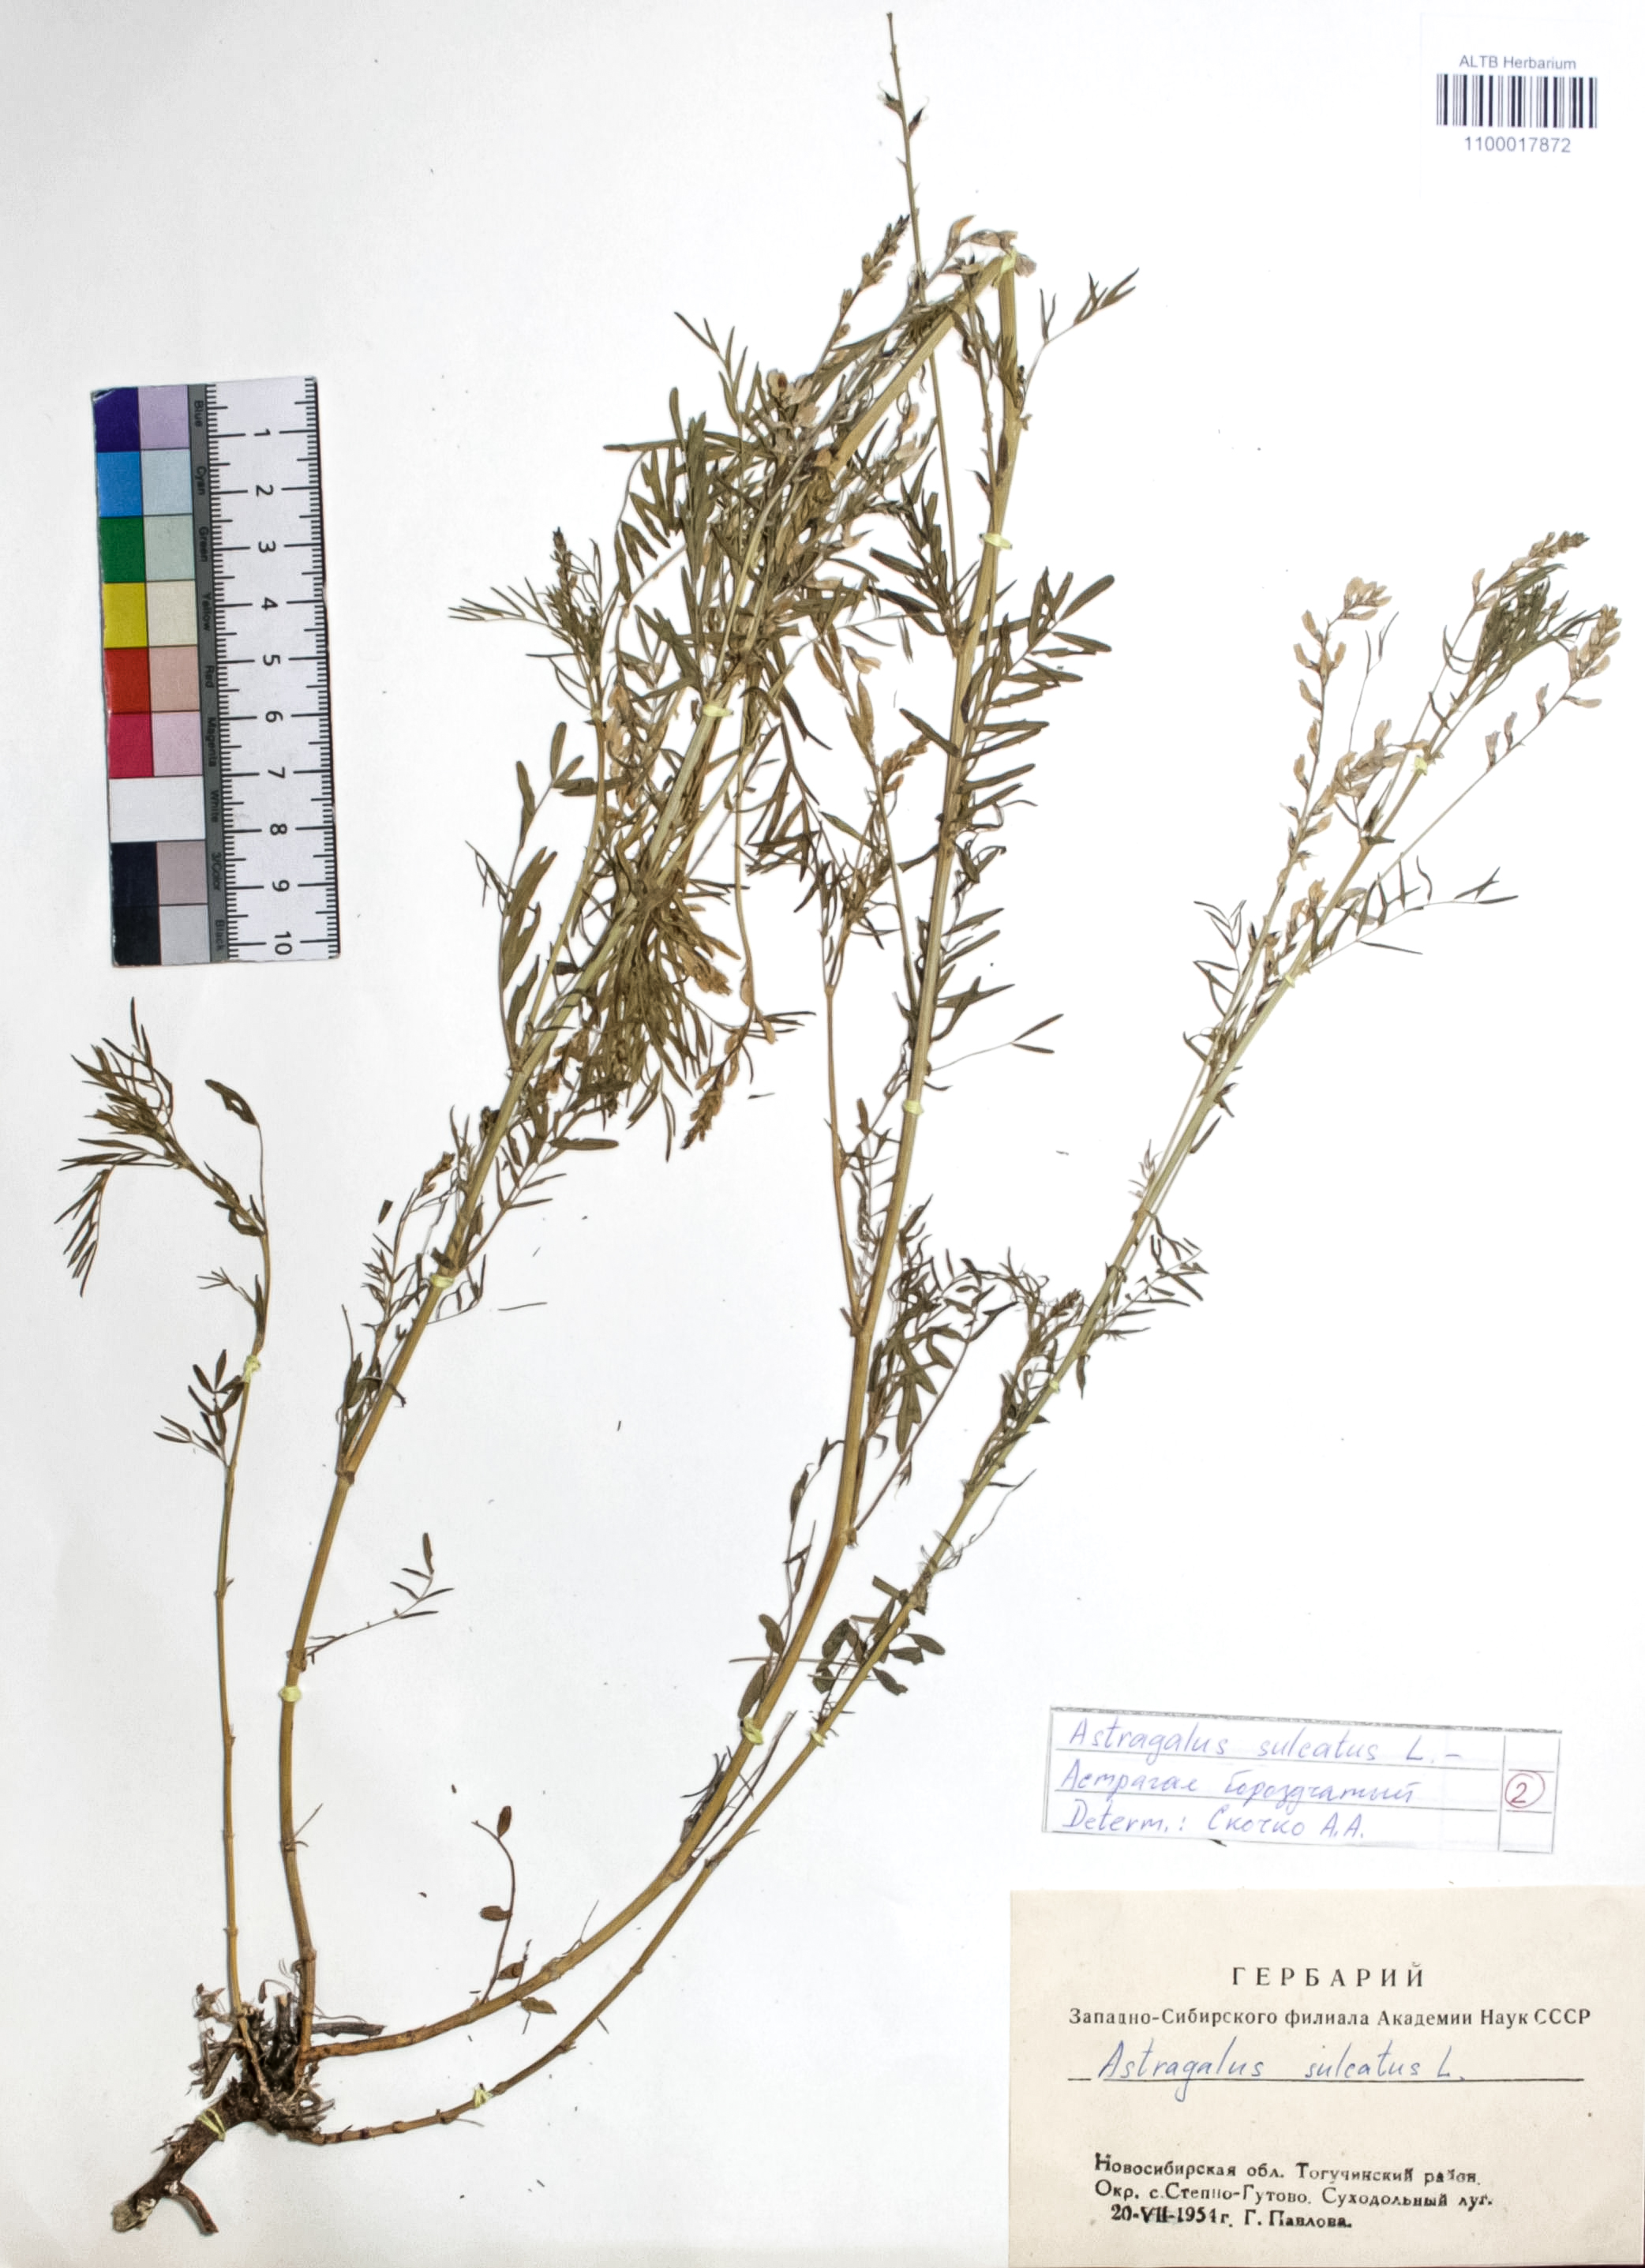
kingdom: Plantae
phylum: Tracheophyta
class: Magnoliopsida
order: Fabales
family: Fabaceae
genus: Astragalus
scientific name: Astragalus sulcatus
